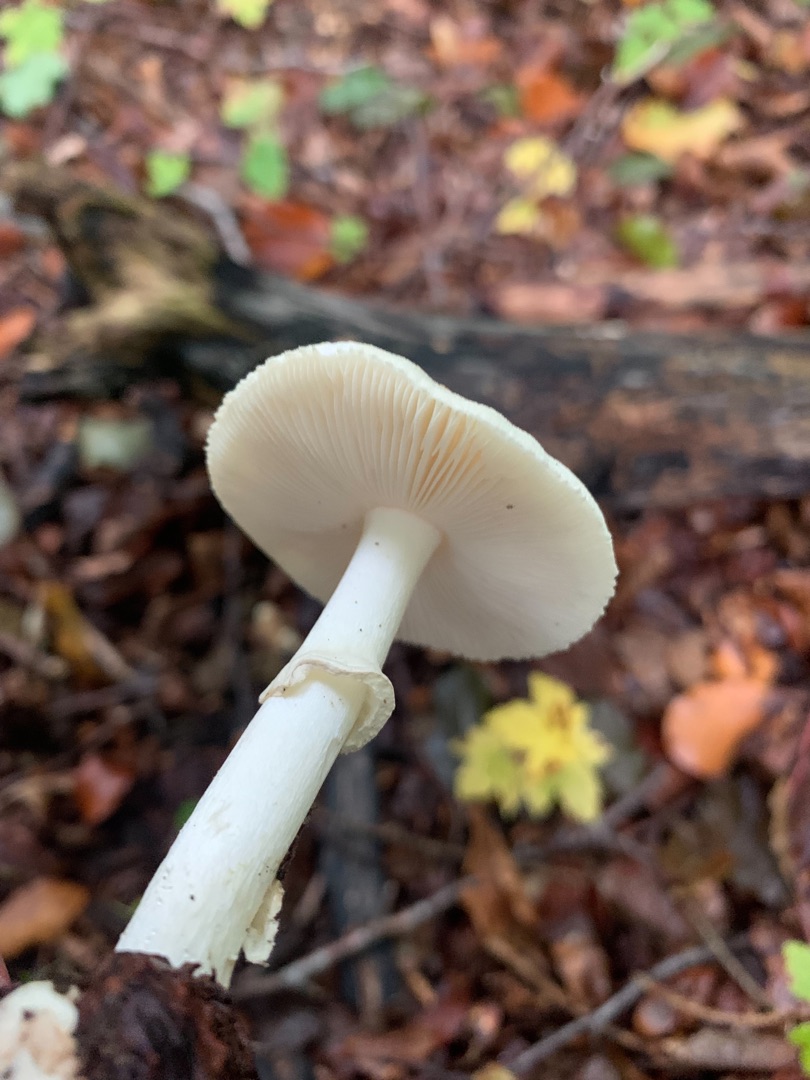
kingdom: Fungi
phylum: Basidiomycota
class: Agaricomycetes
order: Agaricales
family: Amanitaceae
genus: Amanita
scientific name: Amanita citrina
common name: Kugleknoldet fluesvamp
